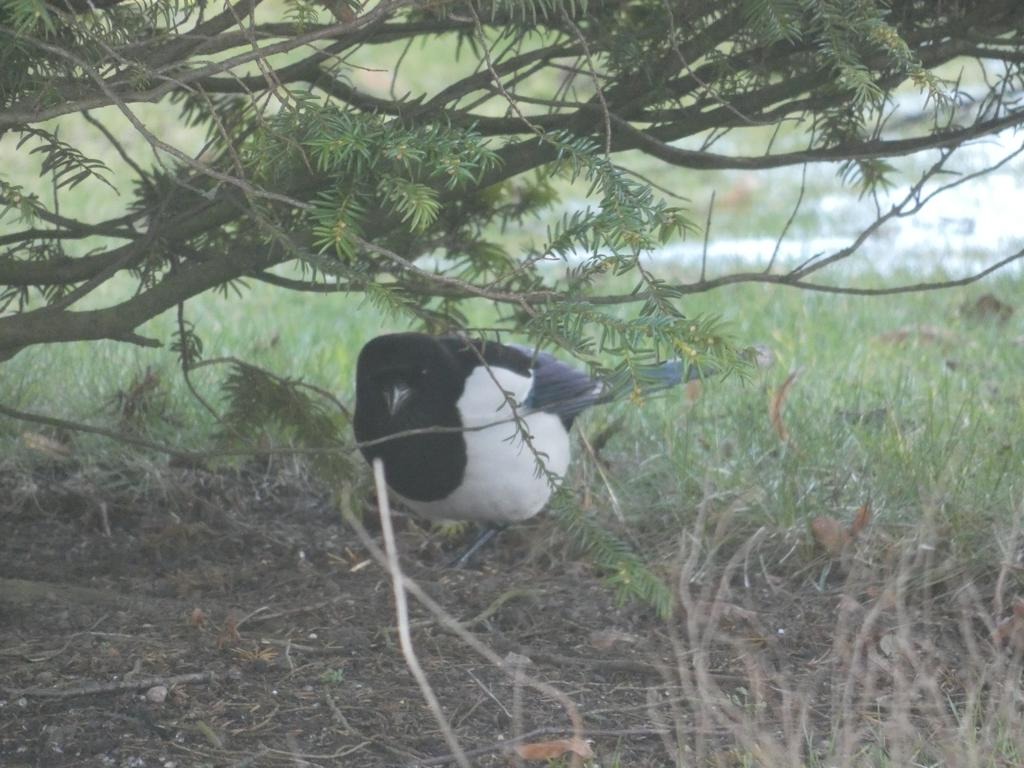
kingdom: Animalia
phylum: Chordata
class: Aves
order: Passeriformes
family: Corvidae
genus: Pica
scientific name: Pica pica
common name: Husskade
